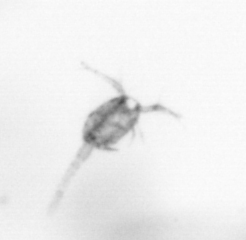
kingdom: Animalia
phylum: Arthropoda
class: Copepoda
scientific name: Copepoda
